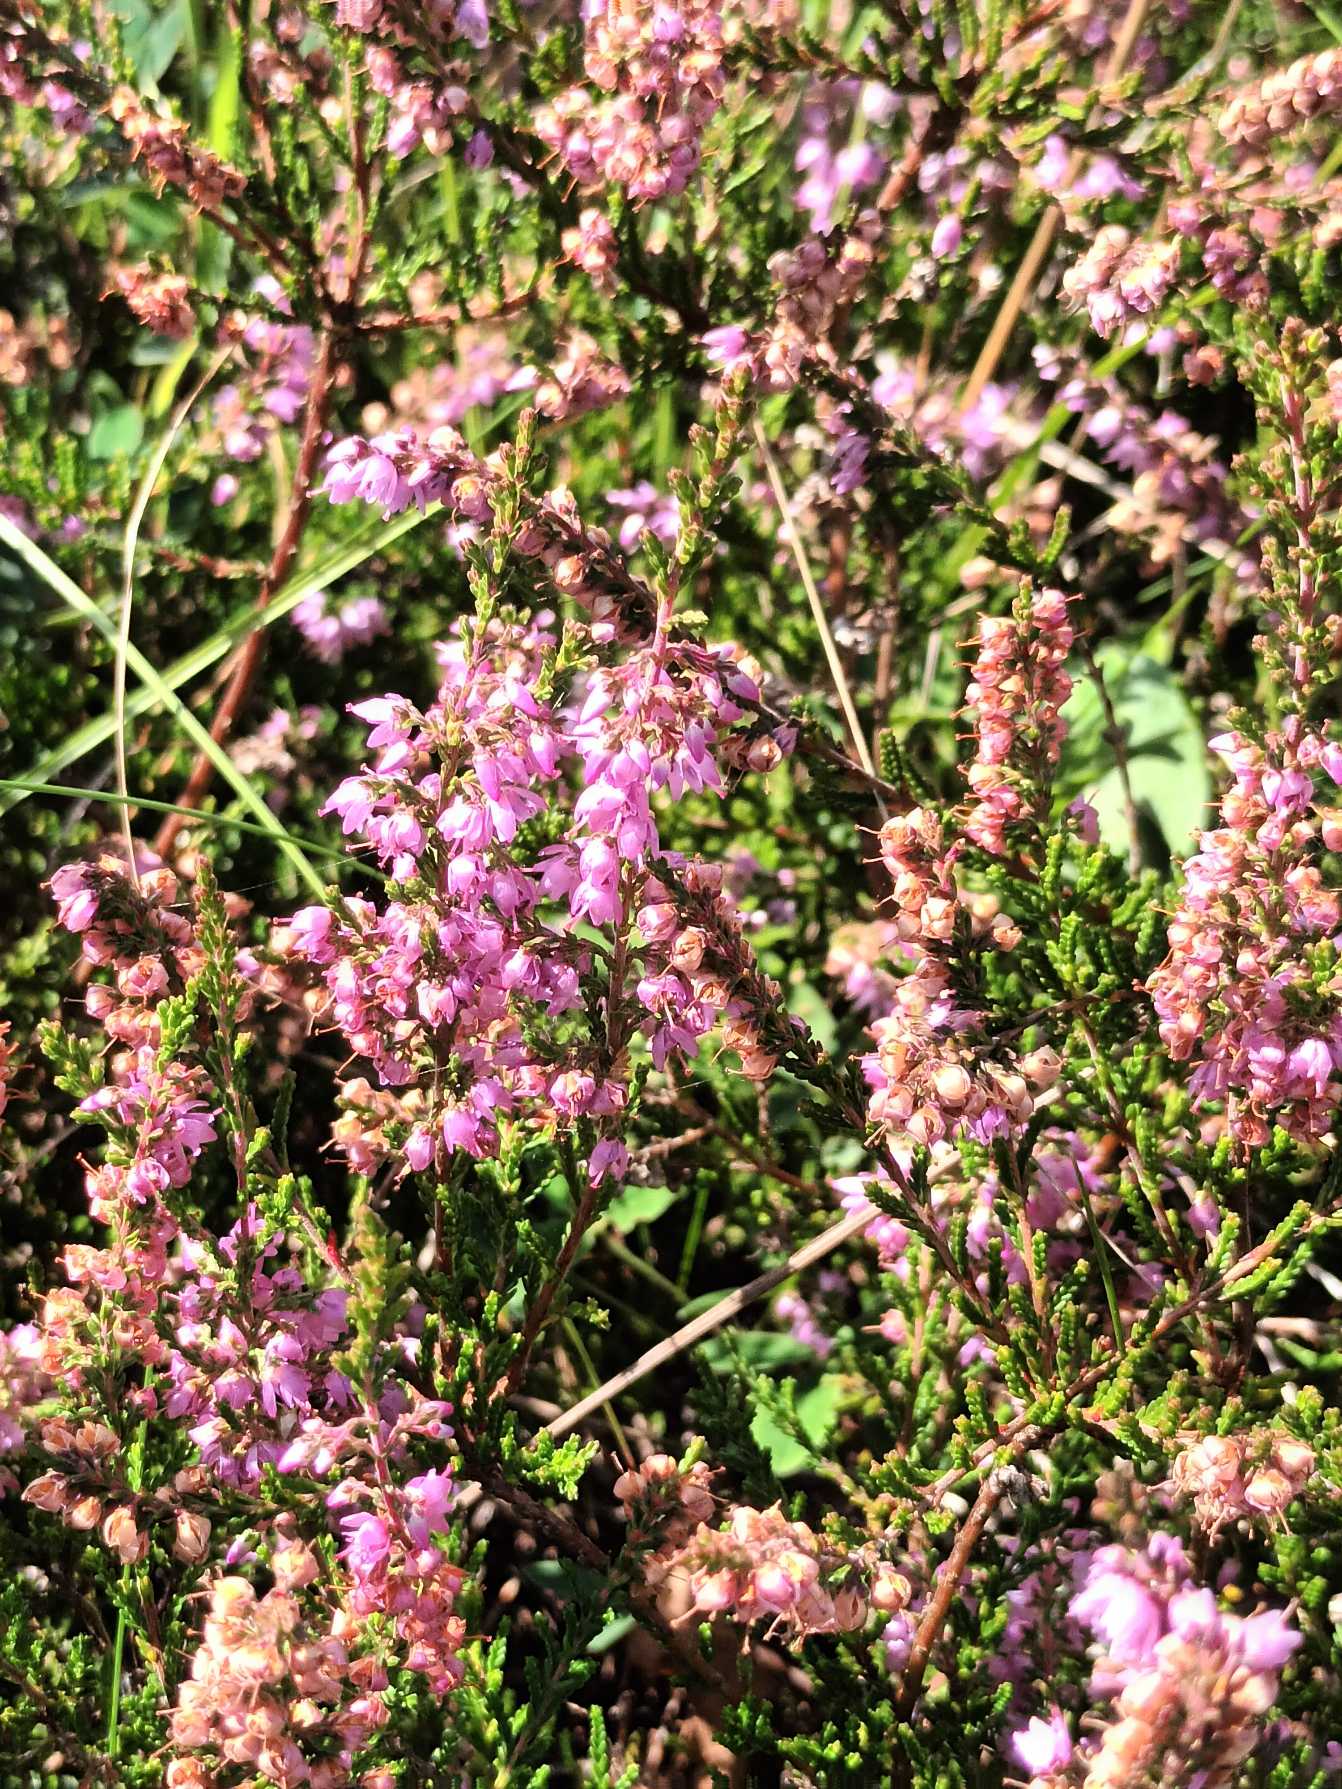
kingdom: Plantae
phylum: Tracheophyta
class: Magnoliopsida
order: Ericales
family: Ericaceae
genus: Calluna
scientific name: Calluna vulgaris
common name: Hedelyng
